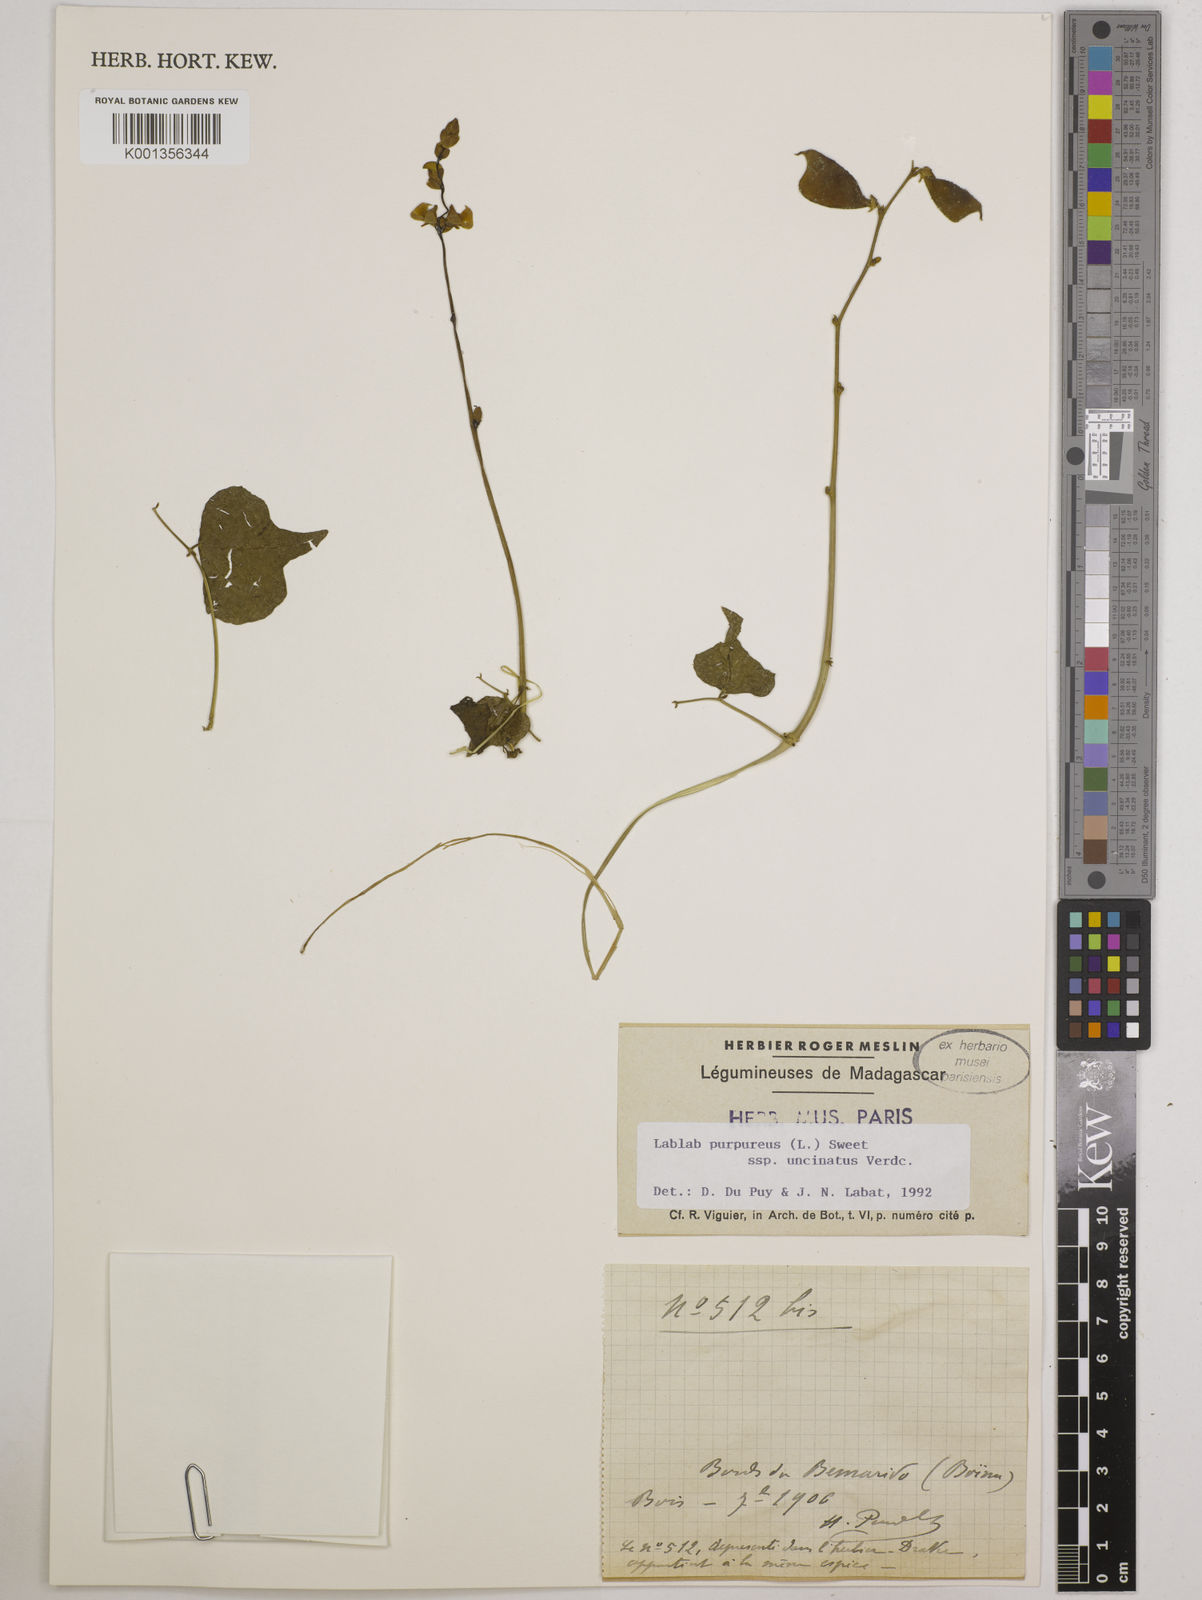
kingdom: Plantae
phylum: Tracheophyta
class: Magnoliopsida
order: Fabales
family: Fabaceae
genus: Lablab
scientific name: Lablab purpureus
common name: Lablab-bean
